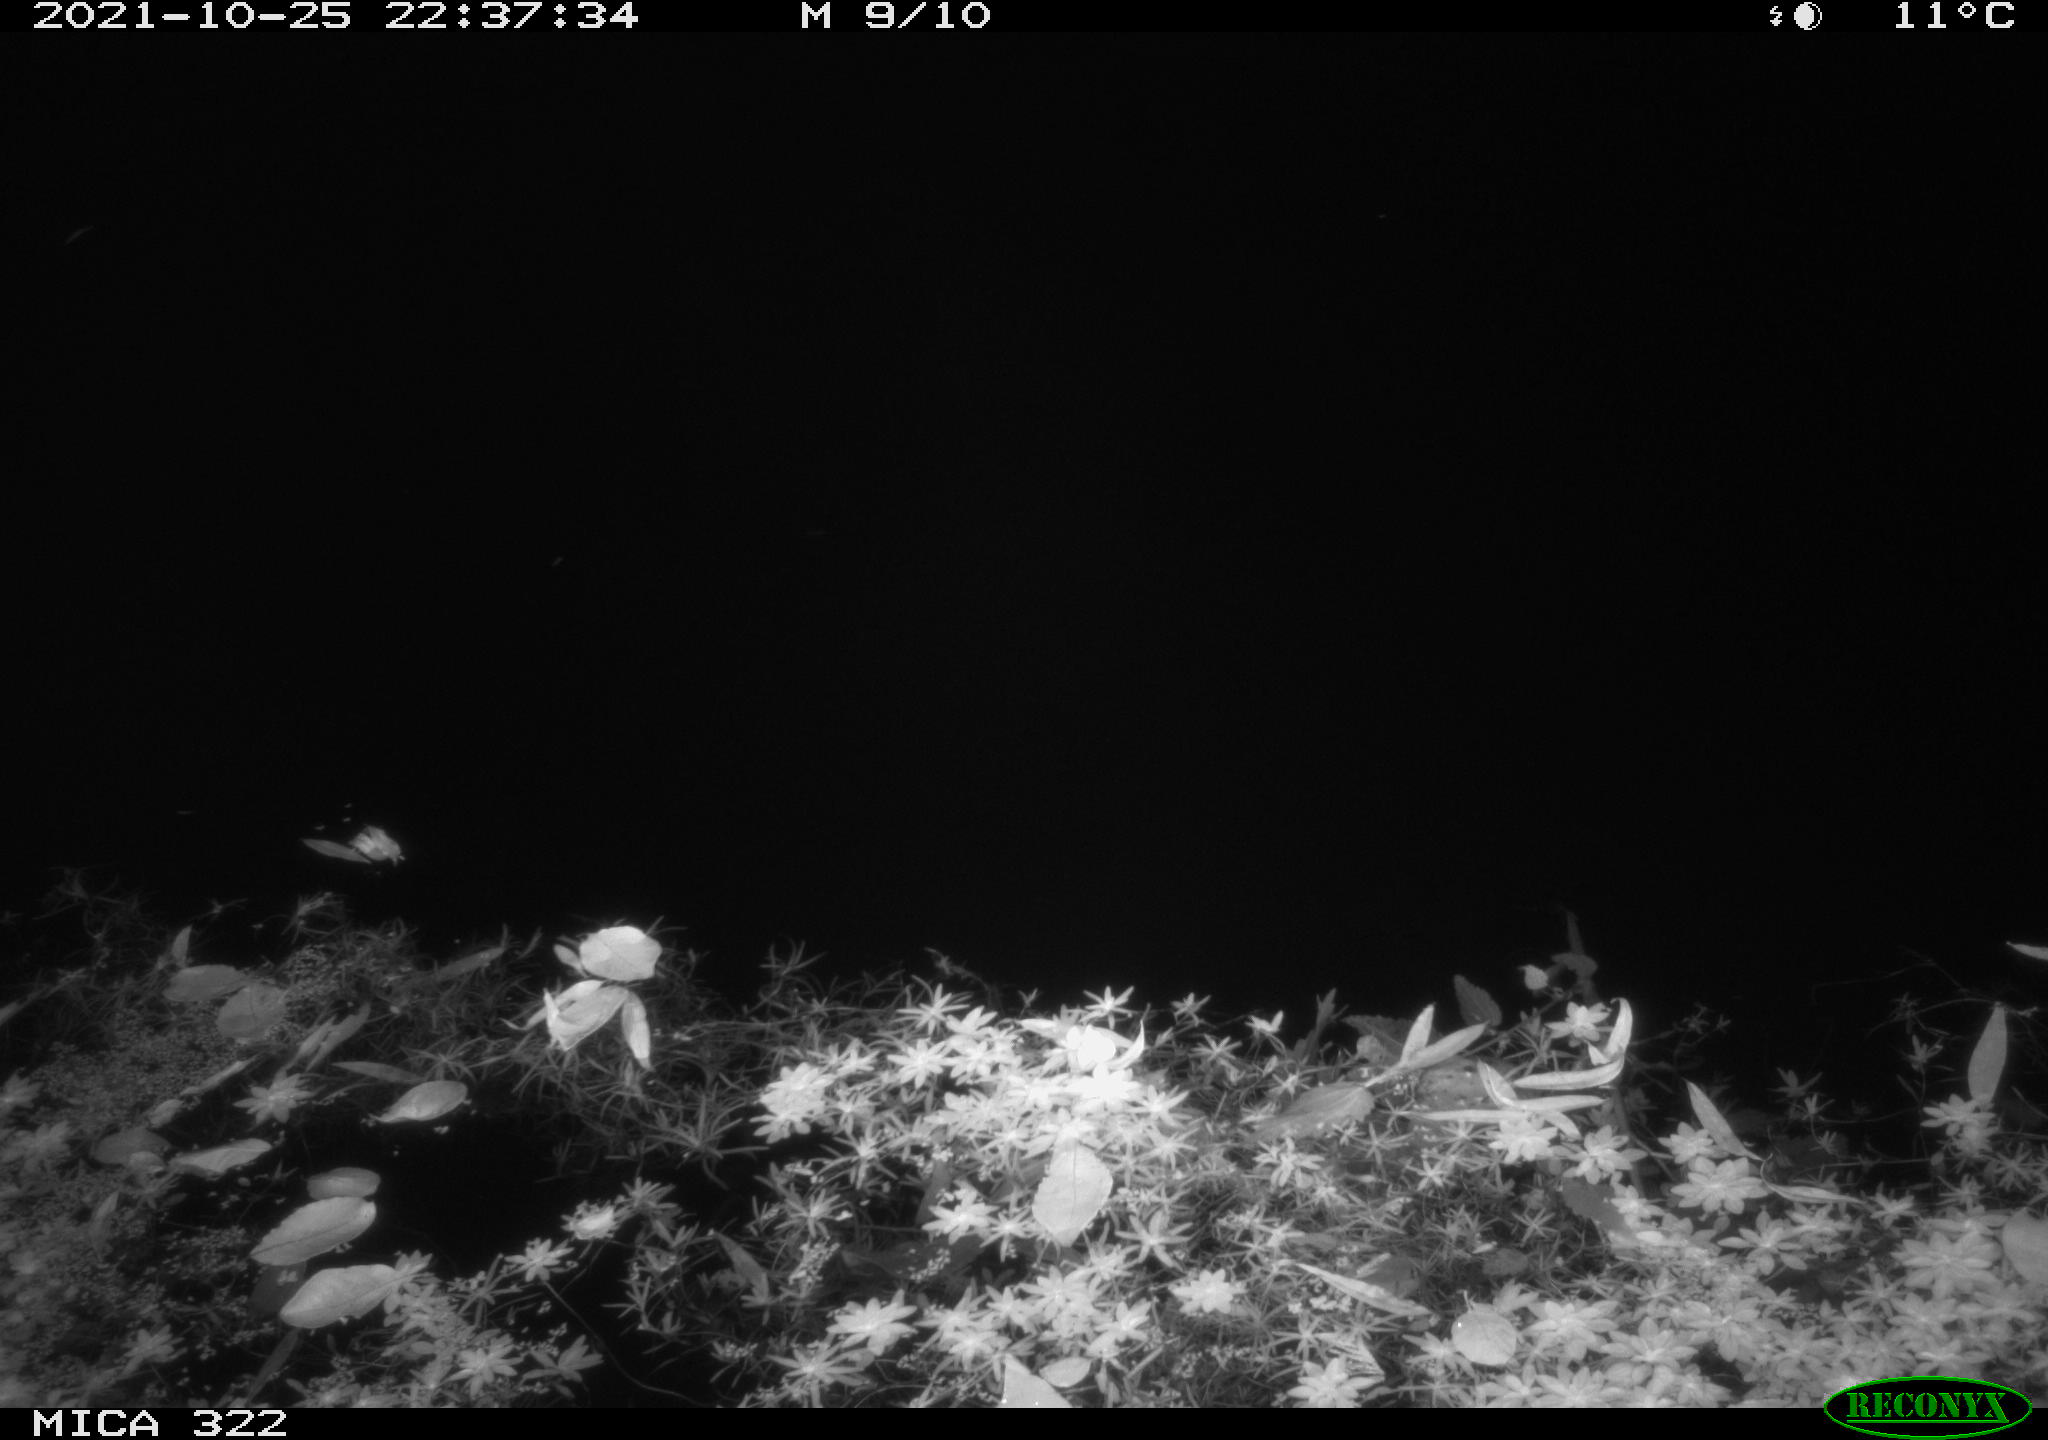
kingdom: Animalia
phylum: Chordata
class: Mammalia
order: Rodentia
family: Muridae
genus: Rattus
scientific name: Rattus norvegicus
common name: Brown rat
